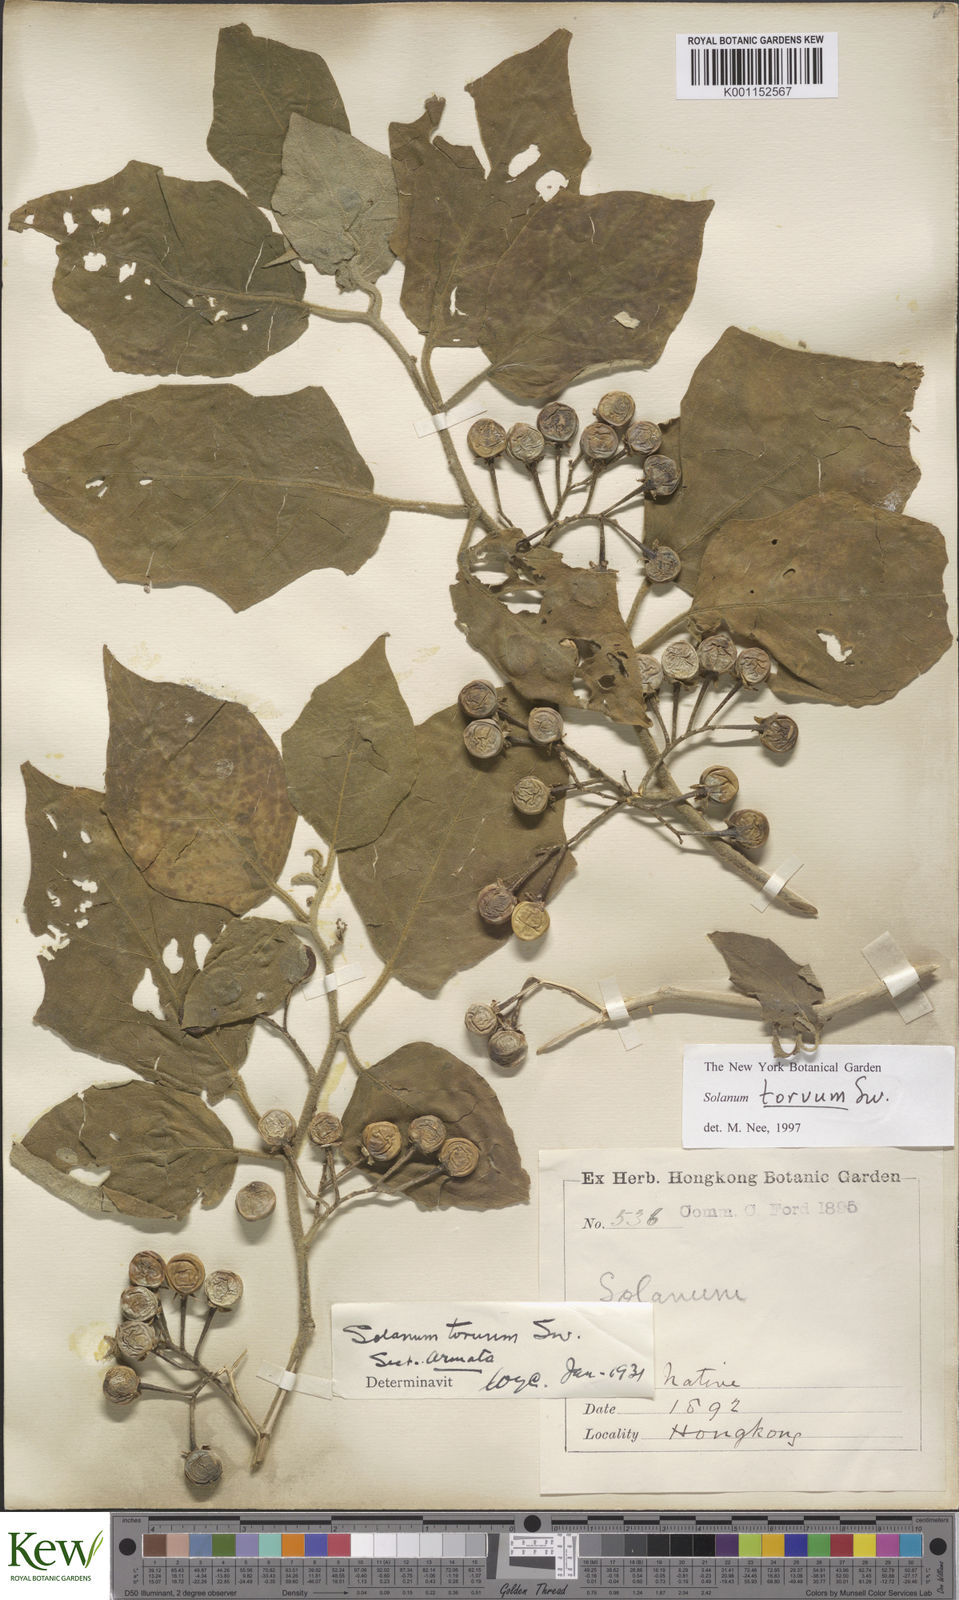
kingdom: Plantae
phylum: Tracheophyta
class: Magnoliopsida
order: Solanales
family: Solanaceae
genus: Solanum
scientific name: Solanum torvum
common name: Turkey berry
